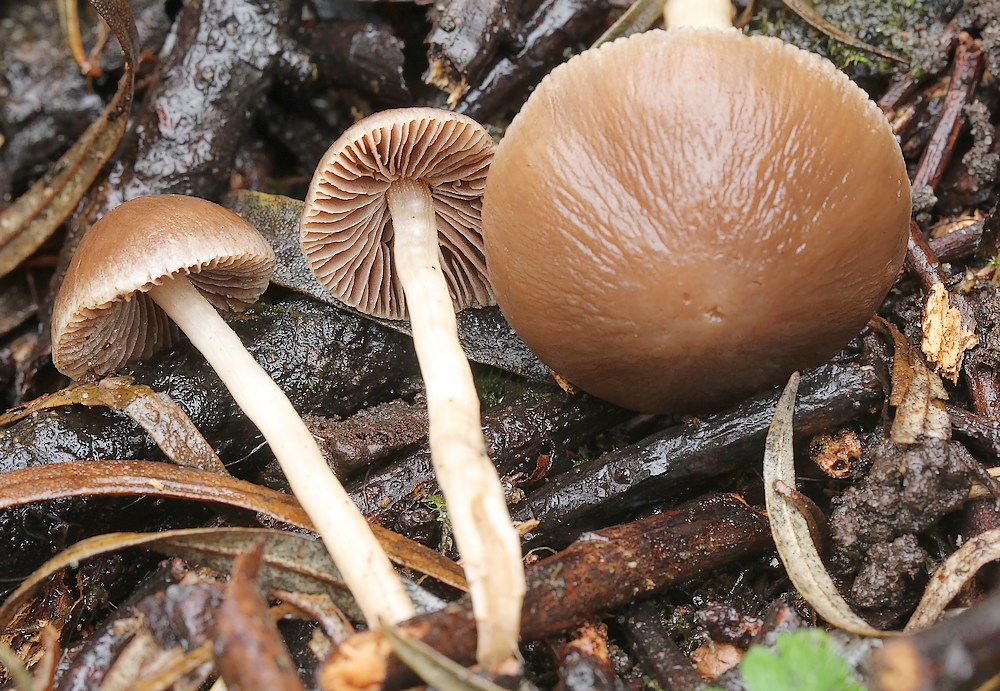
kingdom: Fungi
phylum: Basidiomycota
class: Agaricomycetes
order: Agaricales
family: Psathyrellaceae
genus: Psathyrella
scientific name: Psathyrella
